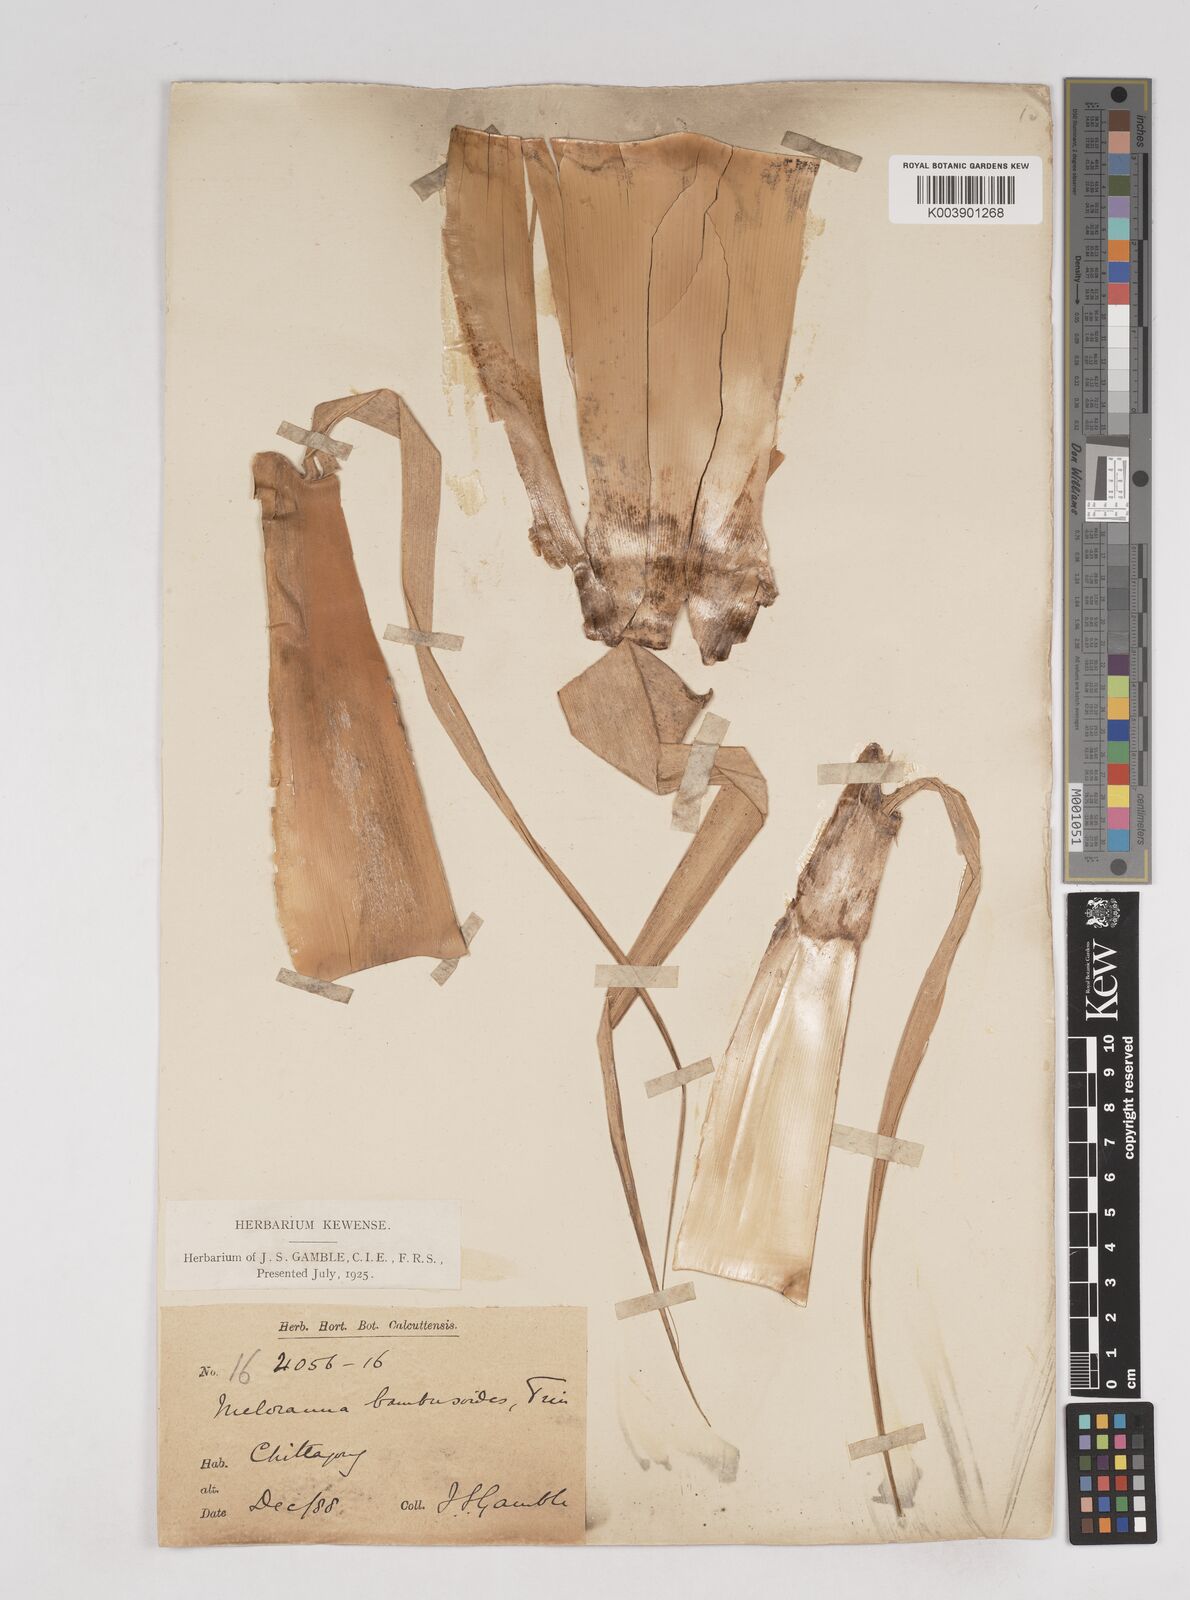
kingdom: Plantae
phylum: Tracheophyta
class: Liliopsida
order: Poales
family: Poaceae
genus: Melocanna
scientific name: Melocanna baccifera
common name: Berry bamboo
